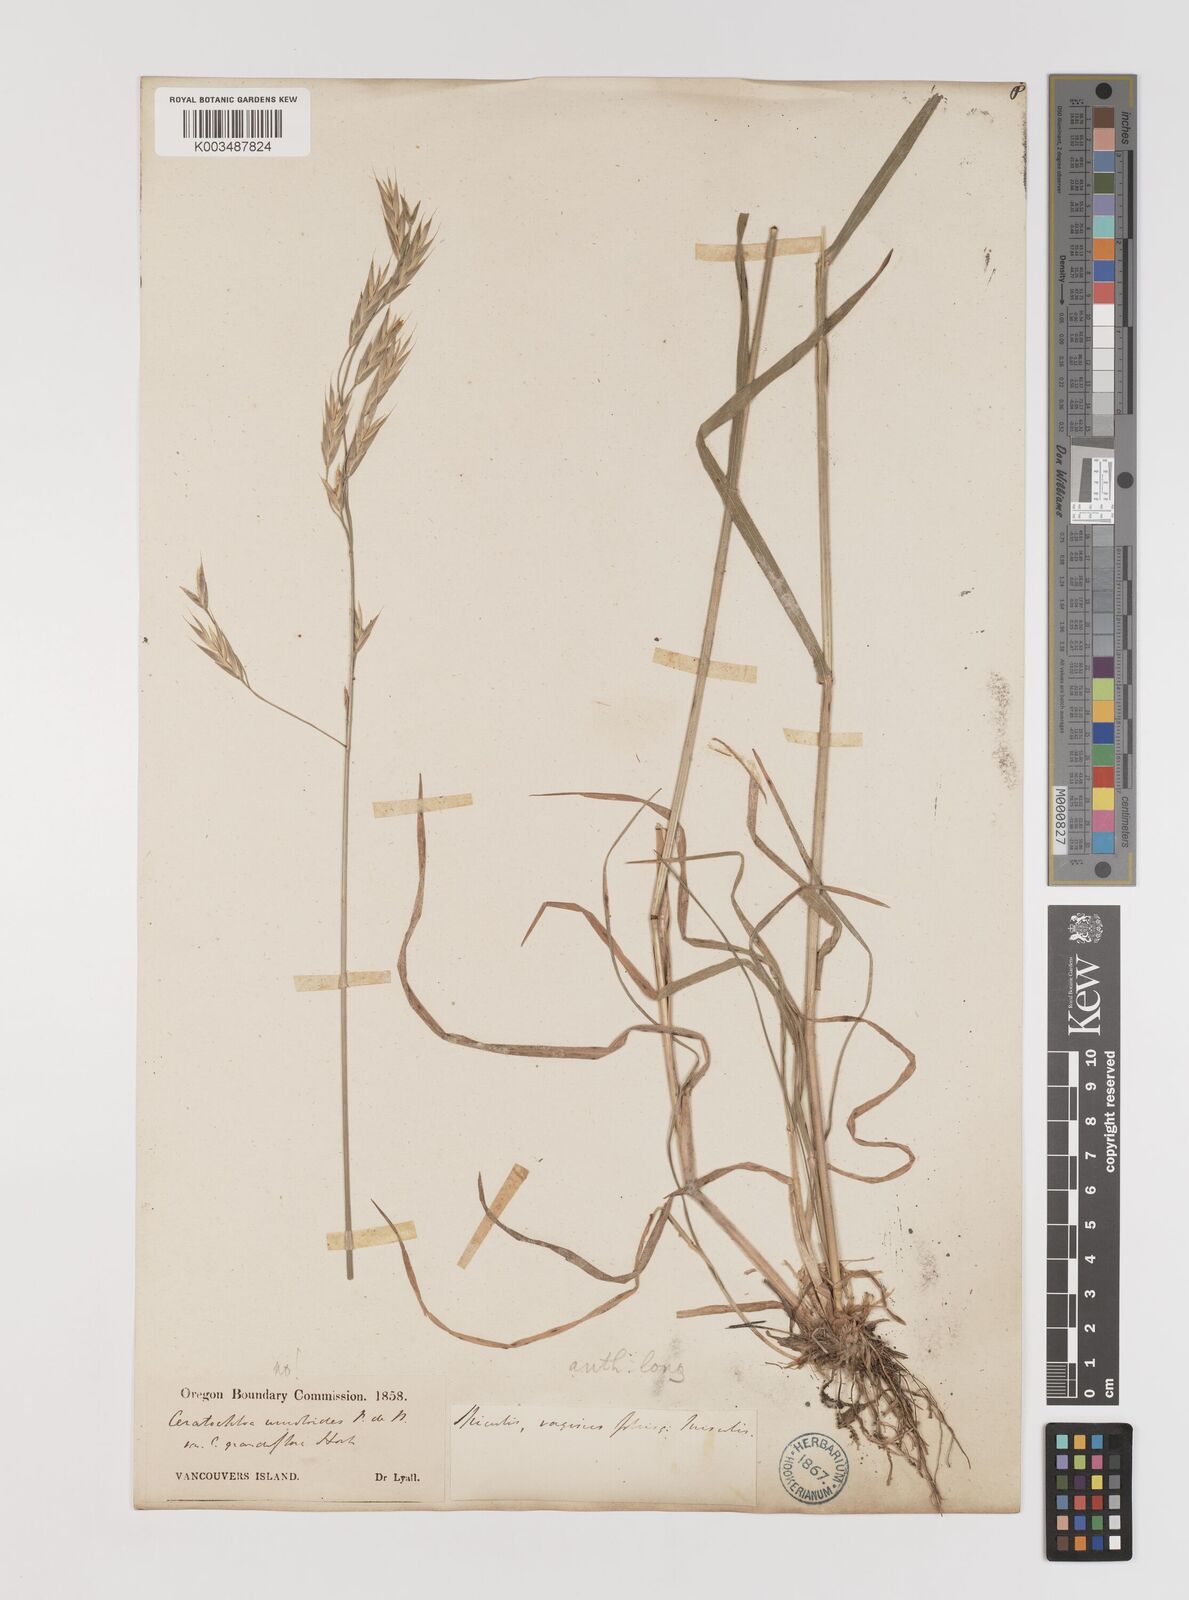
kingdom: Plantae
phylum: Tracheophyta
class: Liliopsida
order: Poales
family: Poaceae
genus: Bromus
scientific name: Bromus catharticus
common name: Rescuegrass
